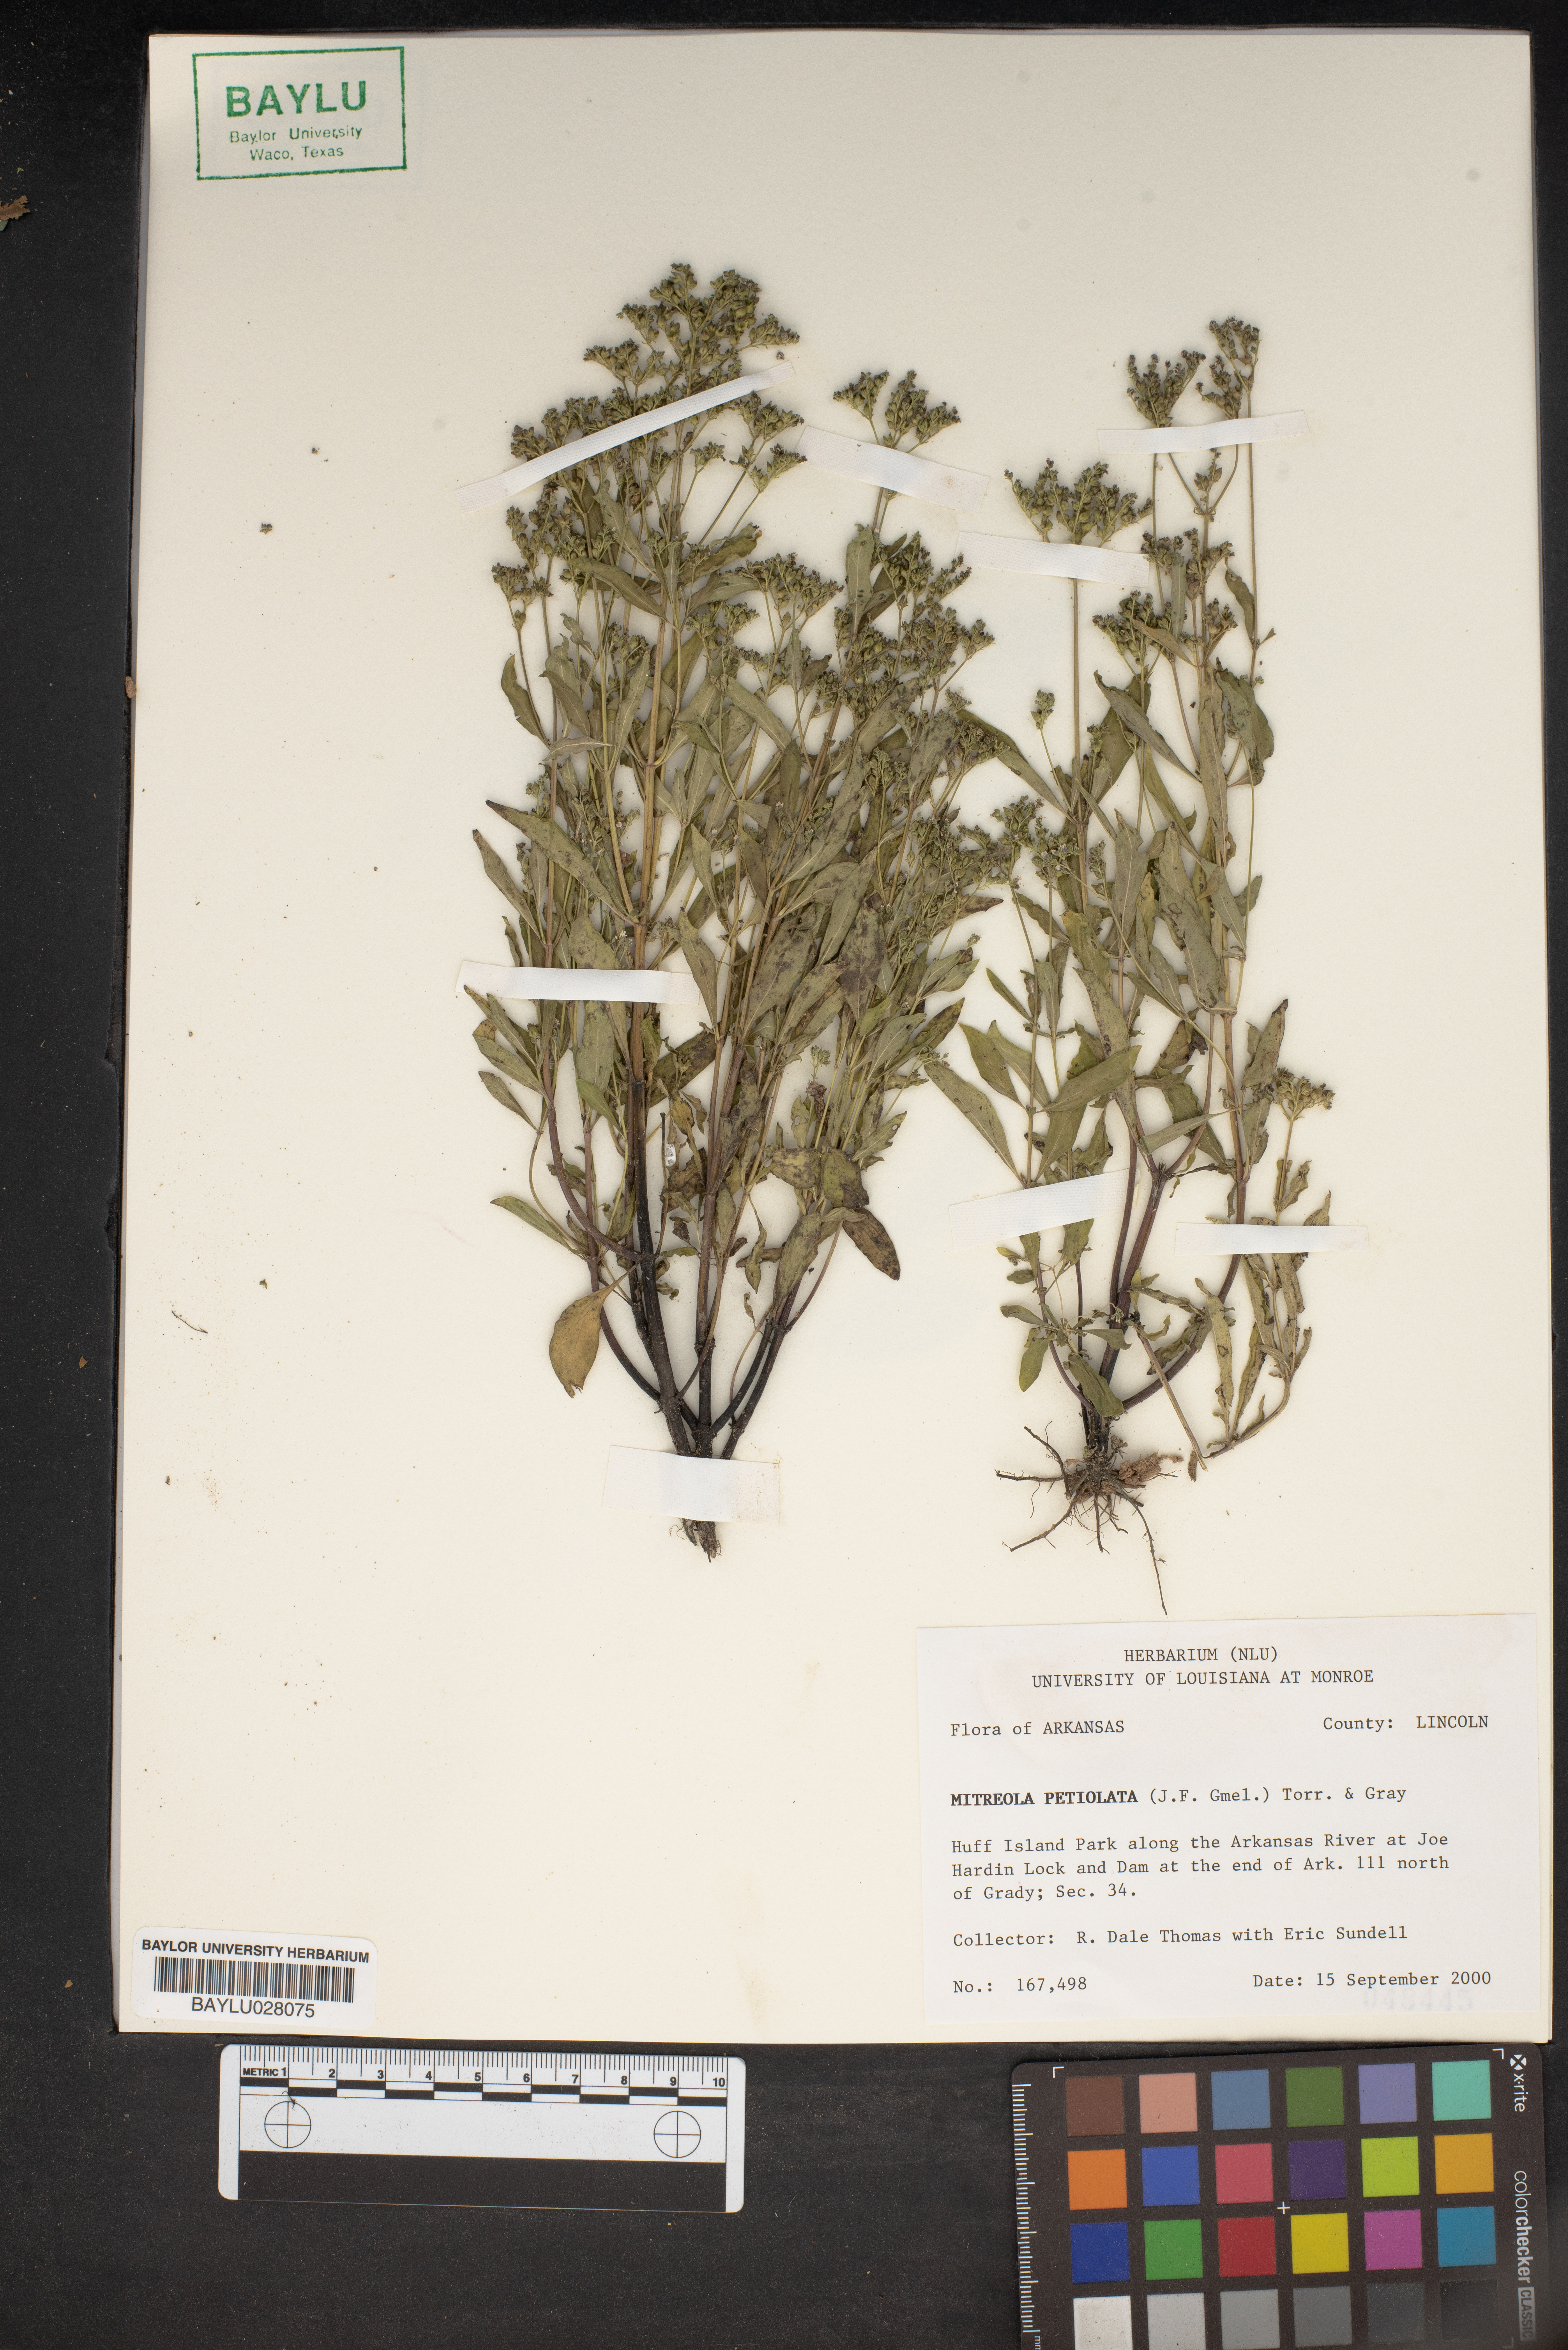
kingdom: Plantae
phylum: Tracheophyta
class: Magnoliopsida
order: Gentianales
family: Loganiaceae
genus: Mitreola
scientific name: Mitreola petiolata
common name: Lax hornpod
